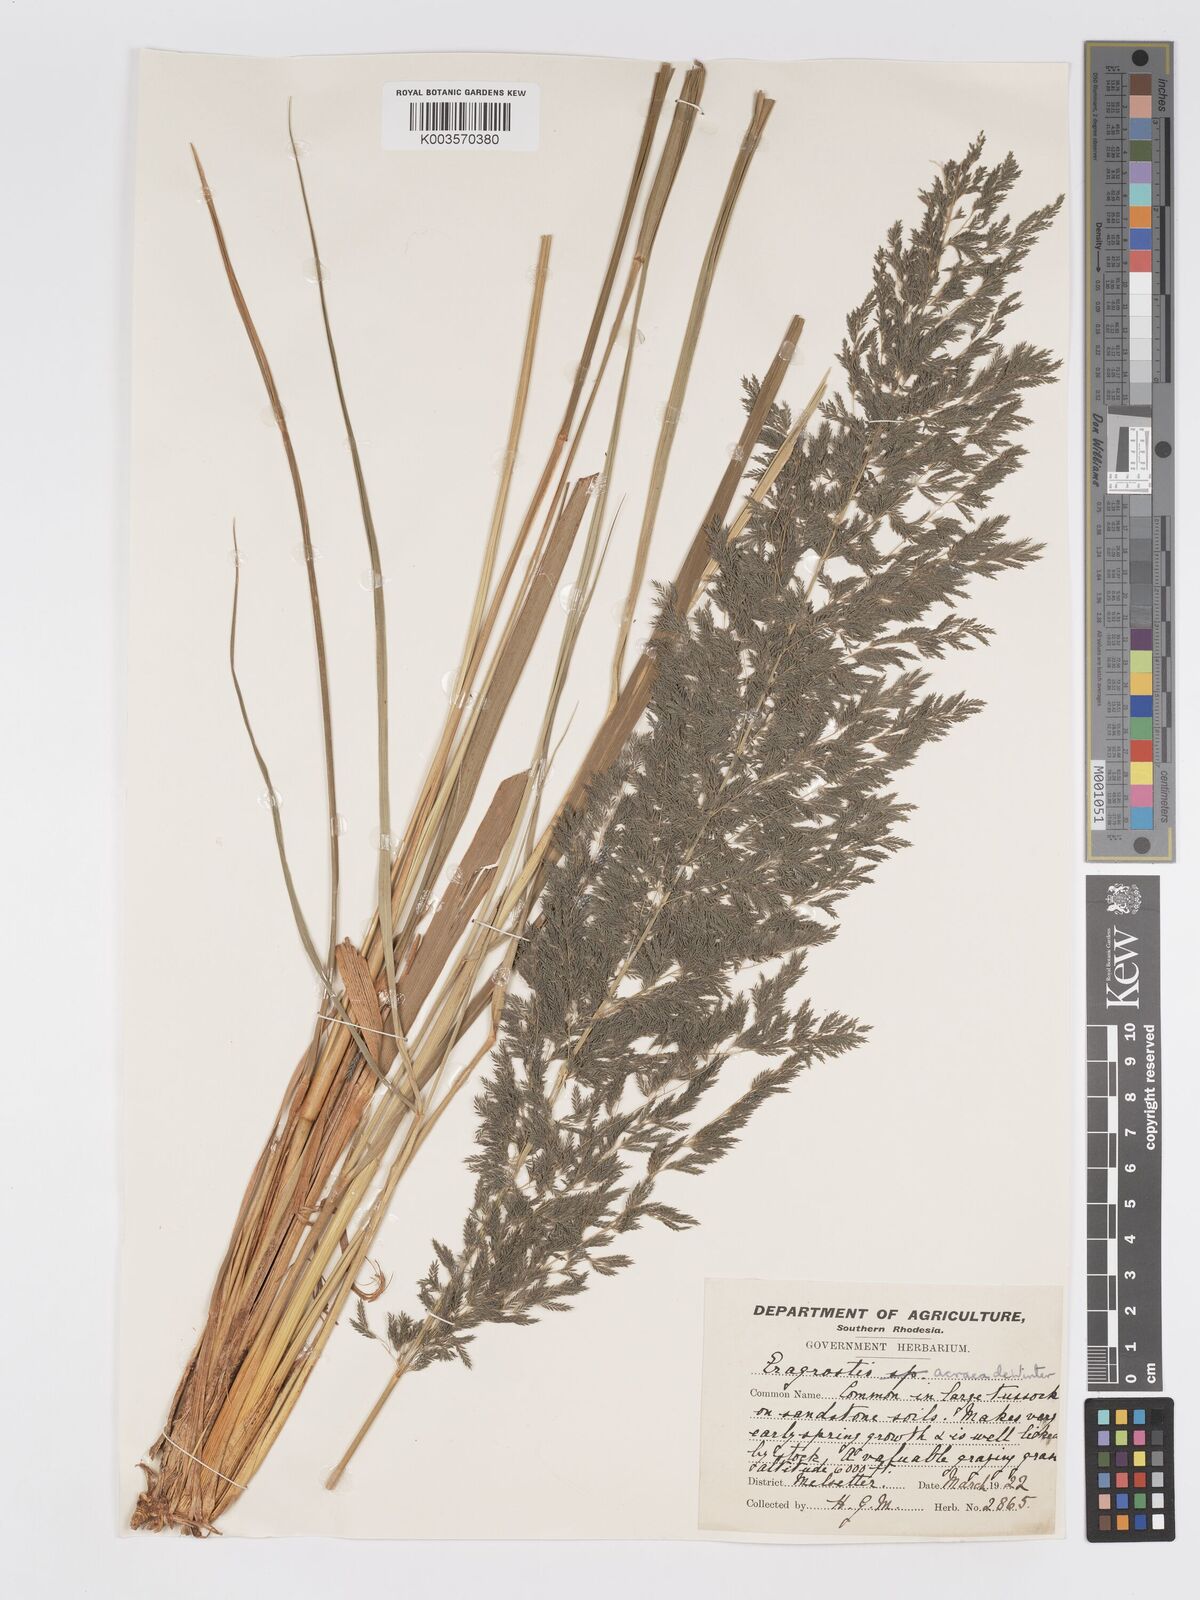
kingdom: Plantae
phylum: Tracheophyta
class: Liliopsida
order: Poales
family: Poaceae
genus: Eragrostis
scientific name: Eragrostis acraea
